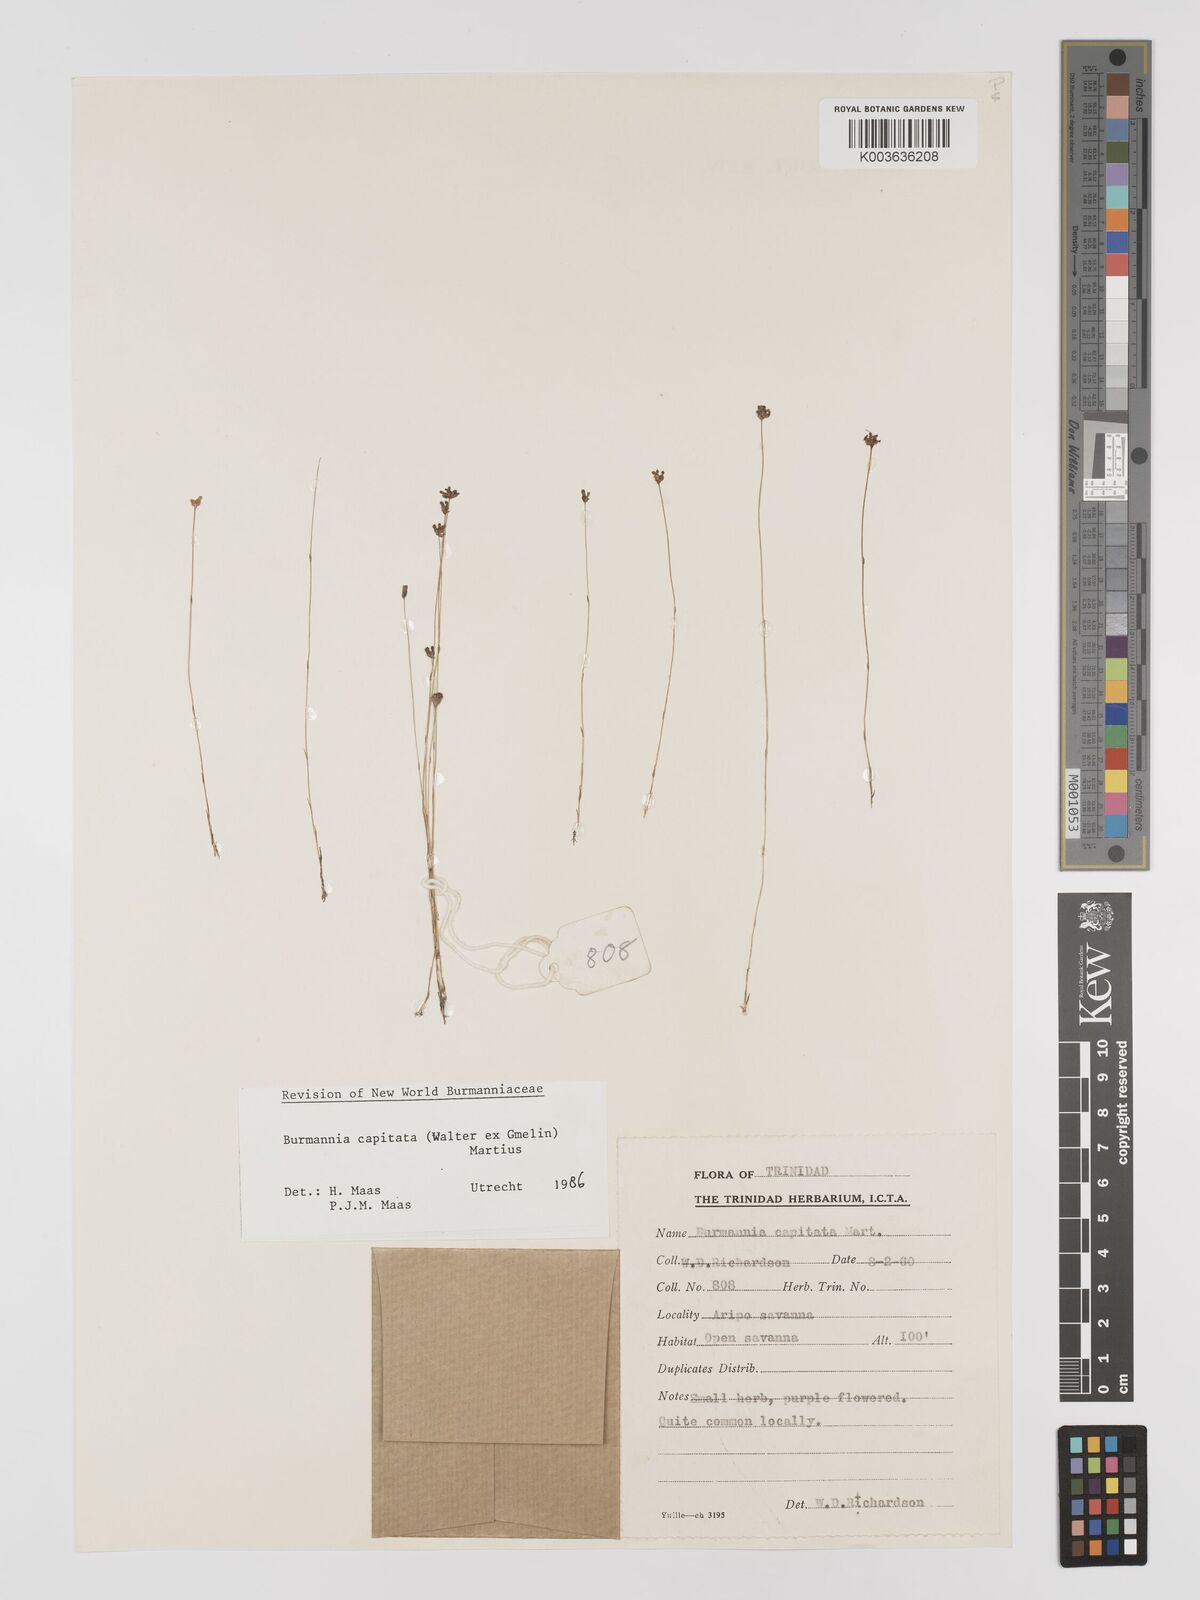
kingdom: Plantae
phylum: Tracheophyta
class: Liliopsida
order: Dioscoreales
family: Burmanniaceae
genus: Burmannia
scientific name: Burmannia capitata
